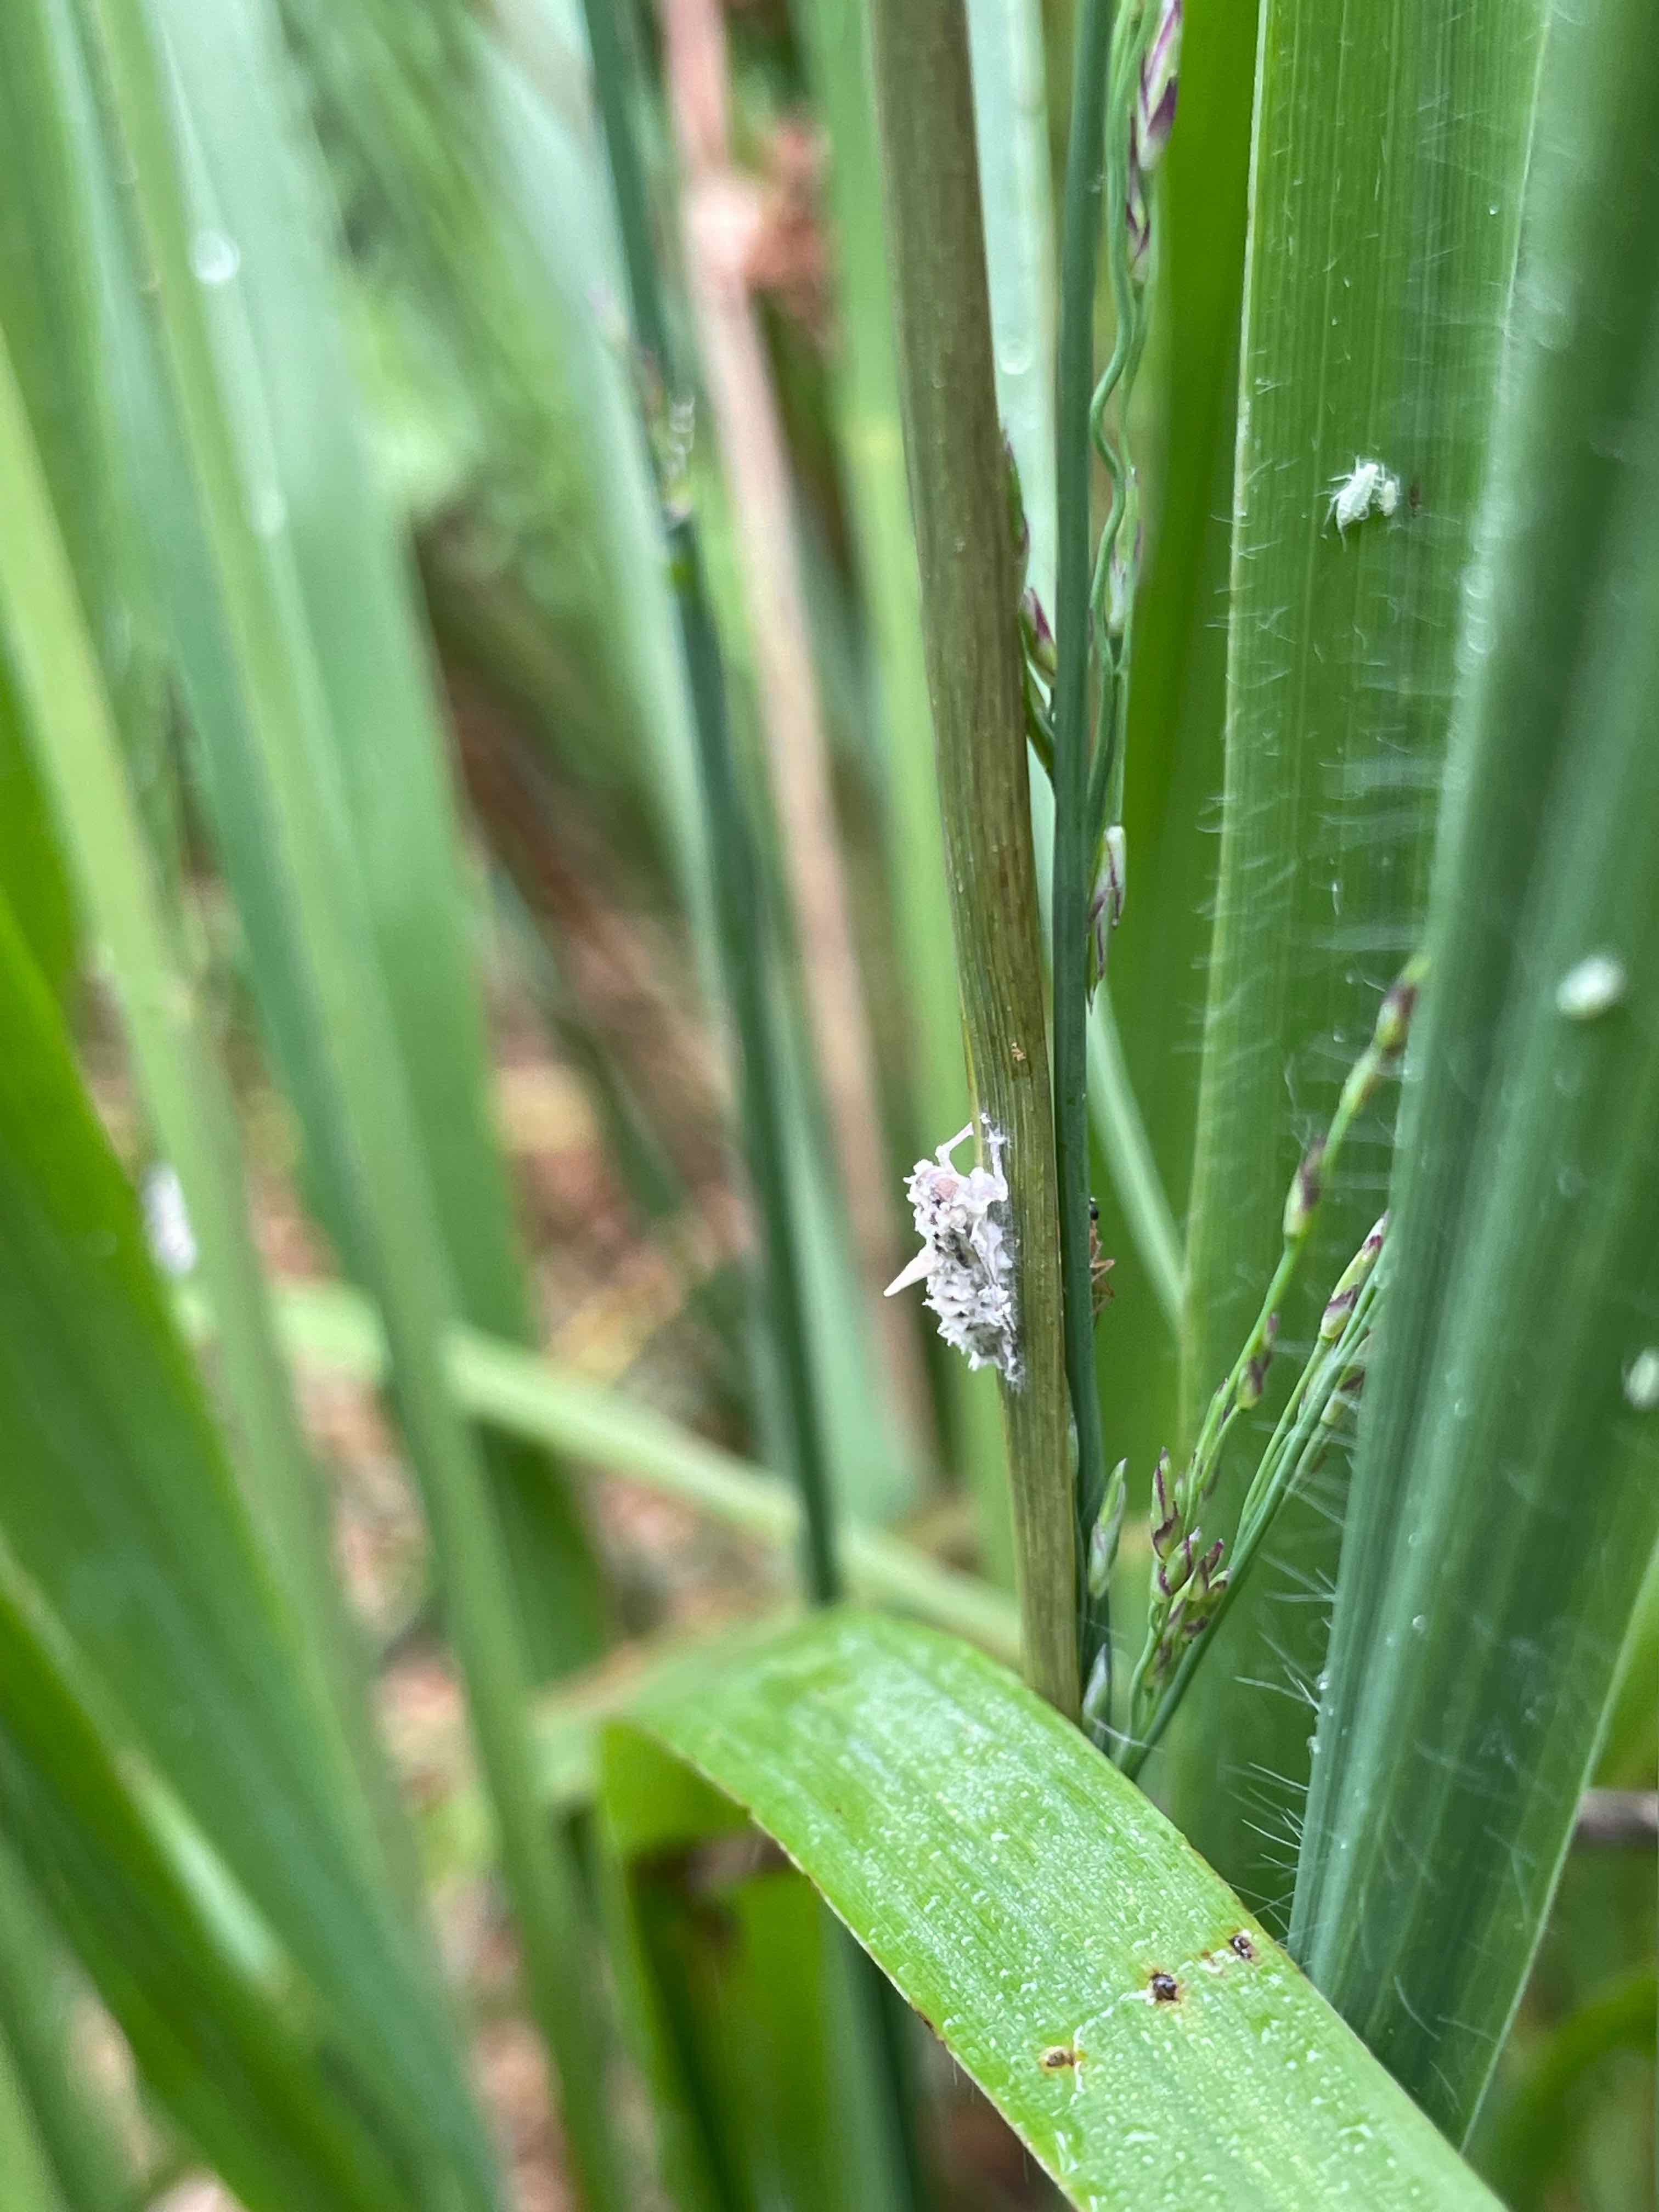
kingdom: Fungi
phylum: Ascomycota
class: Sordariomycetes
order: Hypocreales
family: Ophiocordycipitaceae
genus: Ophiocordyceps
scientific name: Ophiocordyceps
